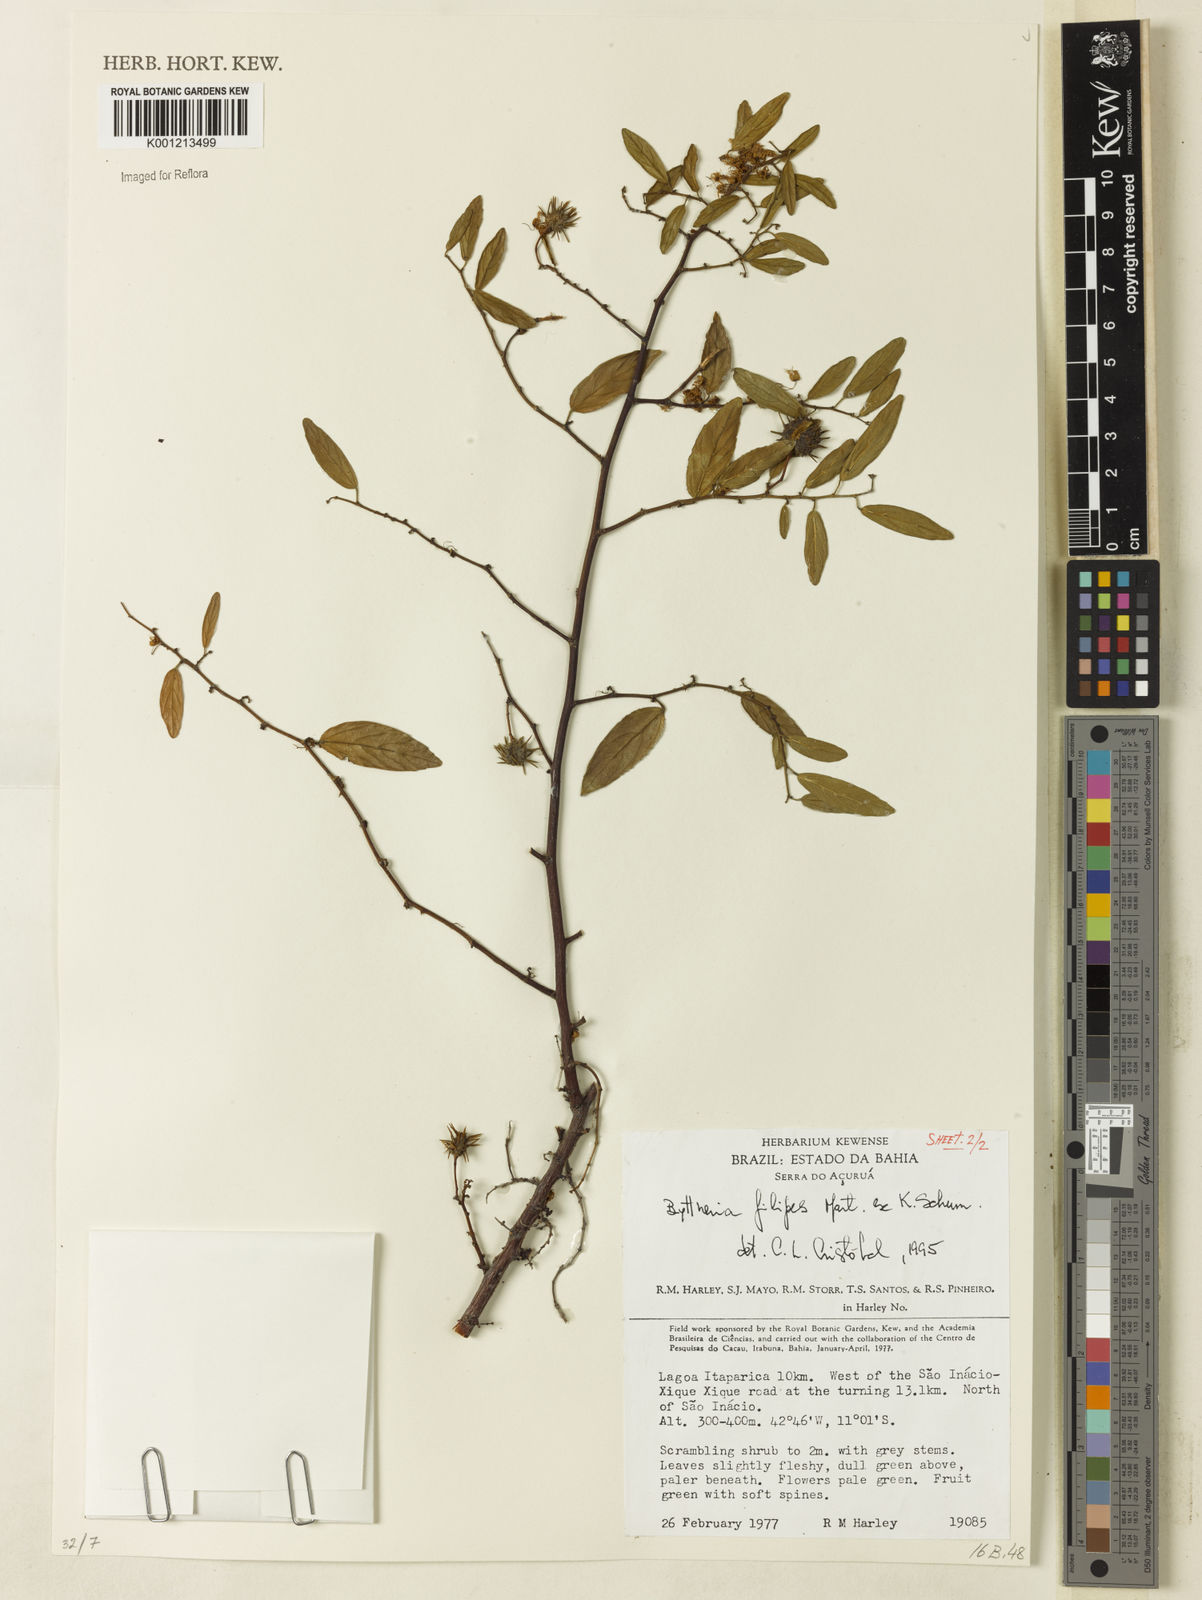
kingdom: Plantae
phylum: Tracheophyta
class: Magnoliopsida
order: Malvales
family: Malvaceae
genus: Byttneria
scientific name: Byttneria filipes
